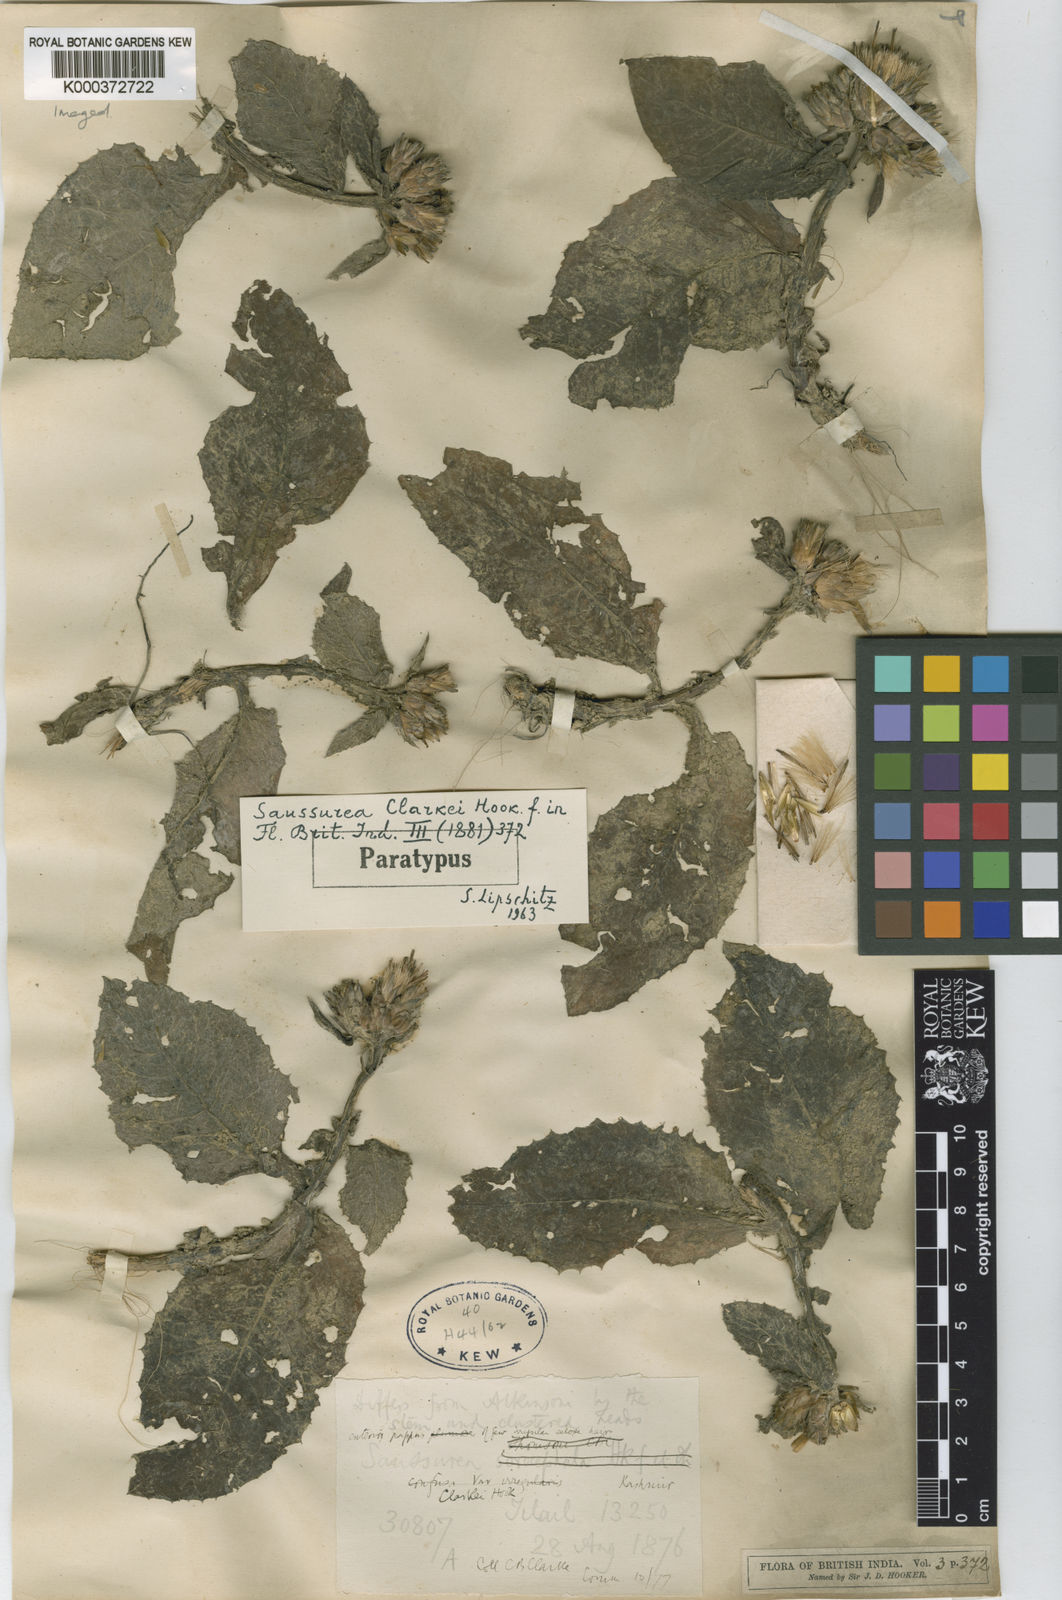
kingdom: Plantae
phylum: Tracheophyta
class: Magnoliopsida
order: Asterales
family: Asteraceae
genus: Saussurea
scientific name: Saussurea candolleana
